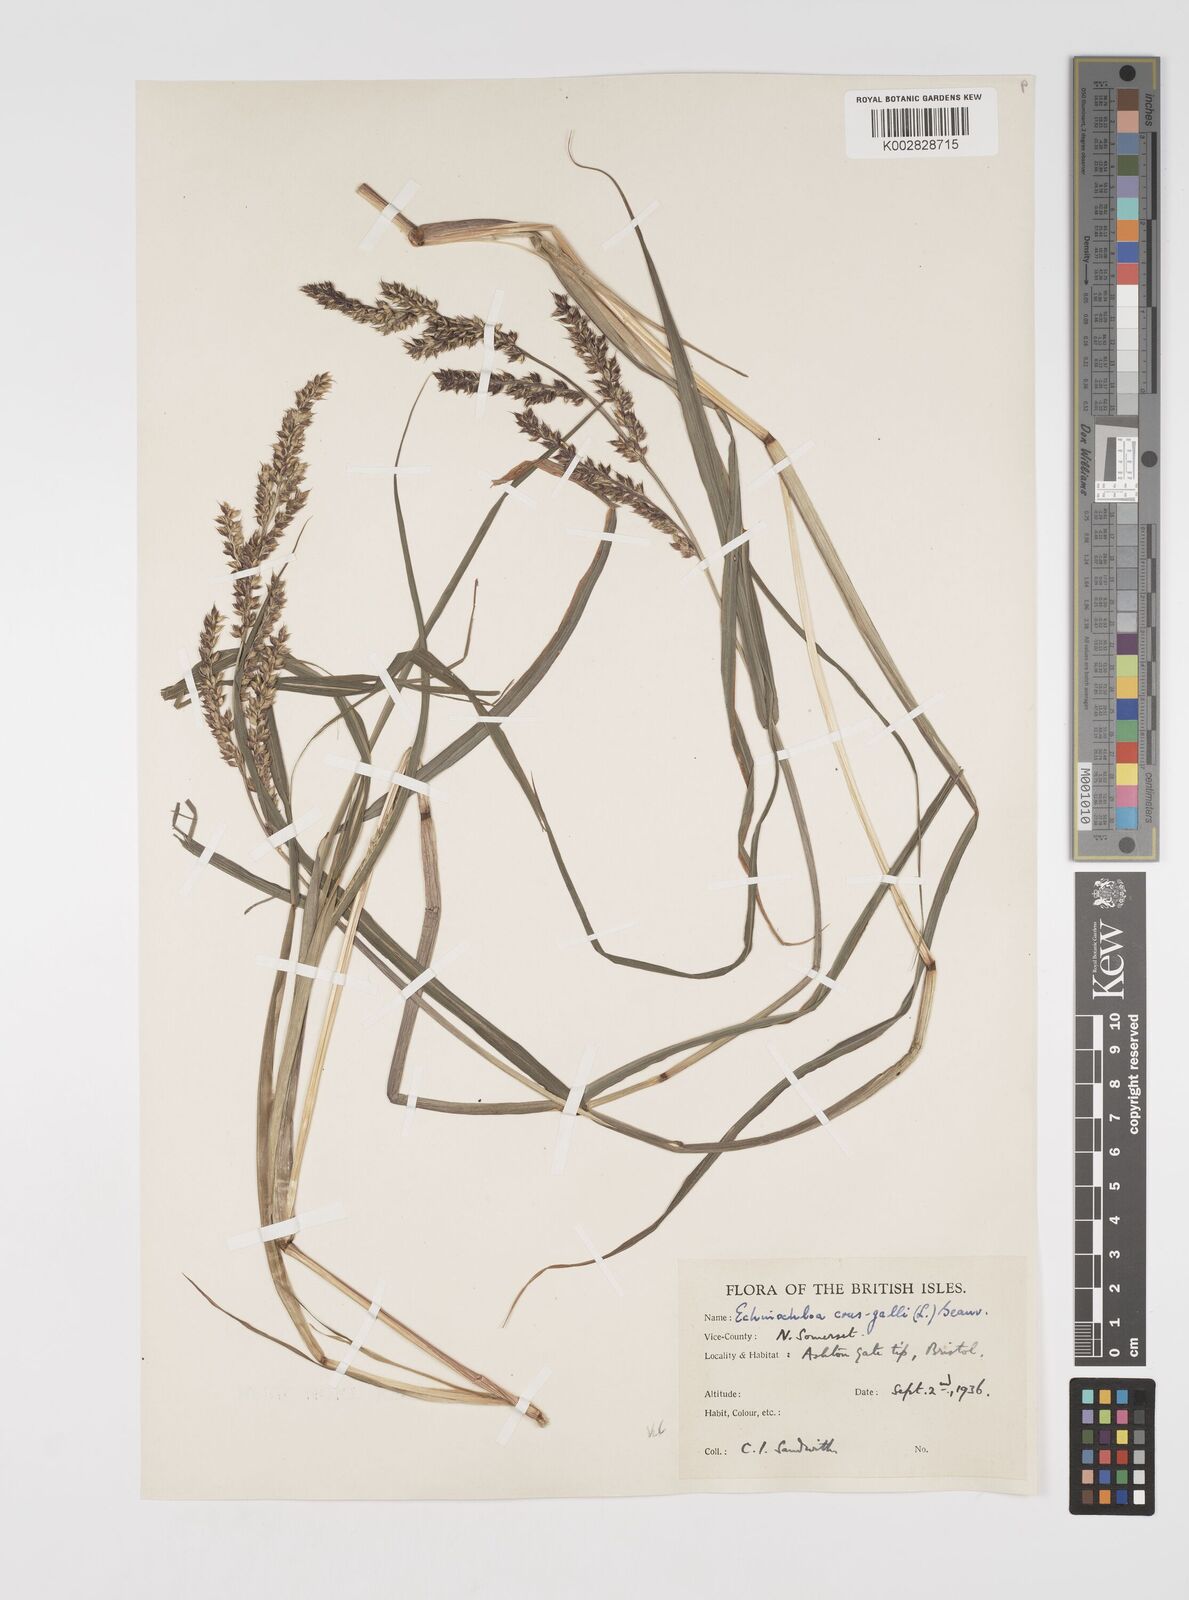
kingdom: Plantae
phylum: Tracheophyta
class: Liliopsida
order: Poales
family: Poaceae
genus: Echinochloa
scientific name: Echinochloa crus-galli
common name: Cockspur
